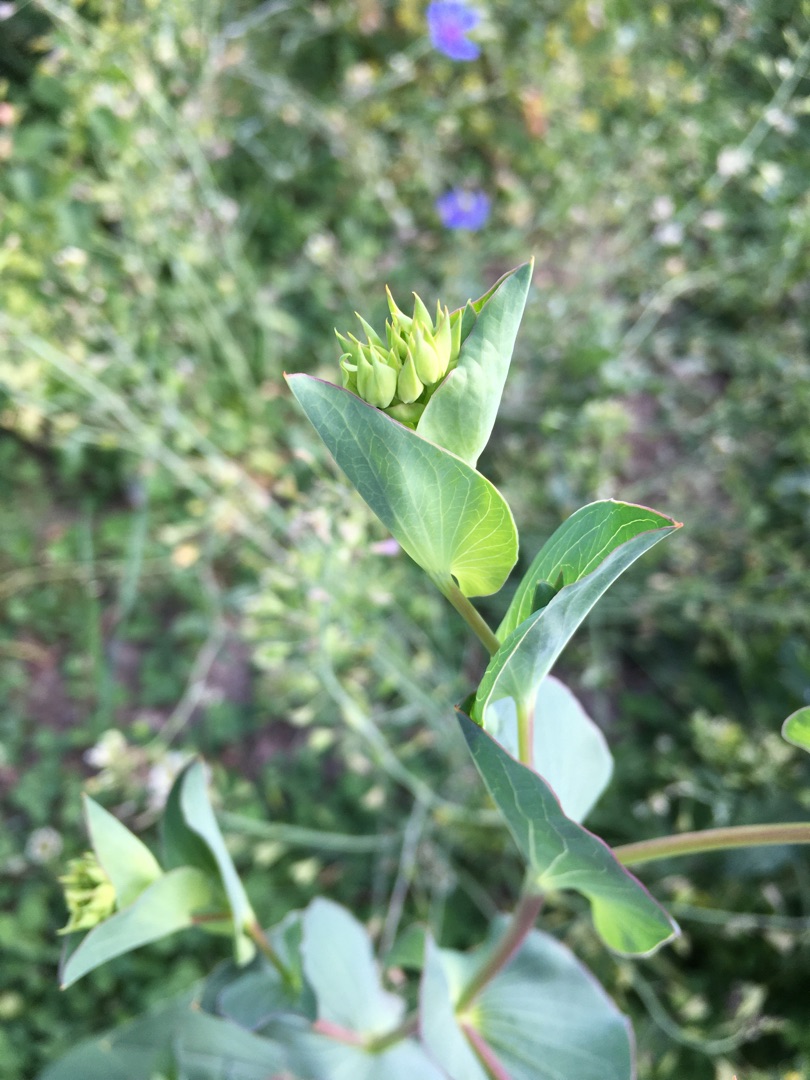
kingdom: Plantae
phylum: Tracheophyta
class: Magnoliopsida
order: Apiales
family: Apiaceae
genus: Bupleurum
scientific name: Bupleurum rotundifolium
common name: Rundbladet hareøre
